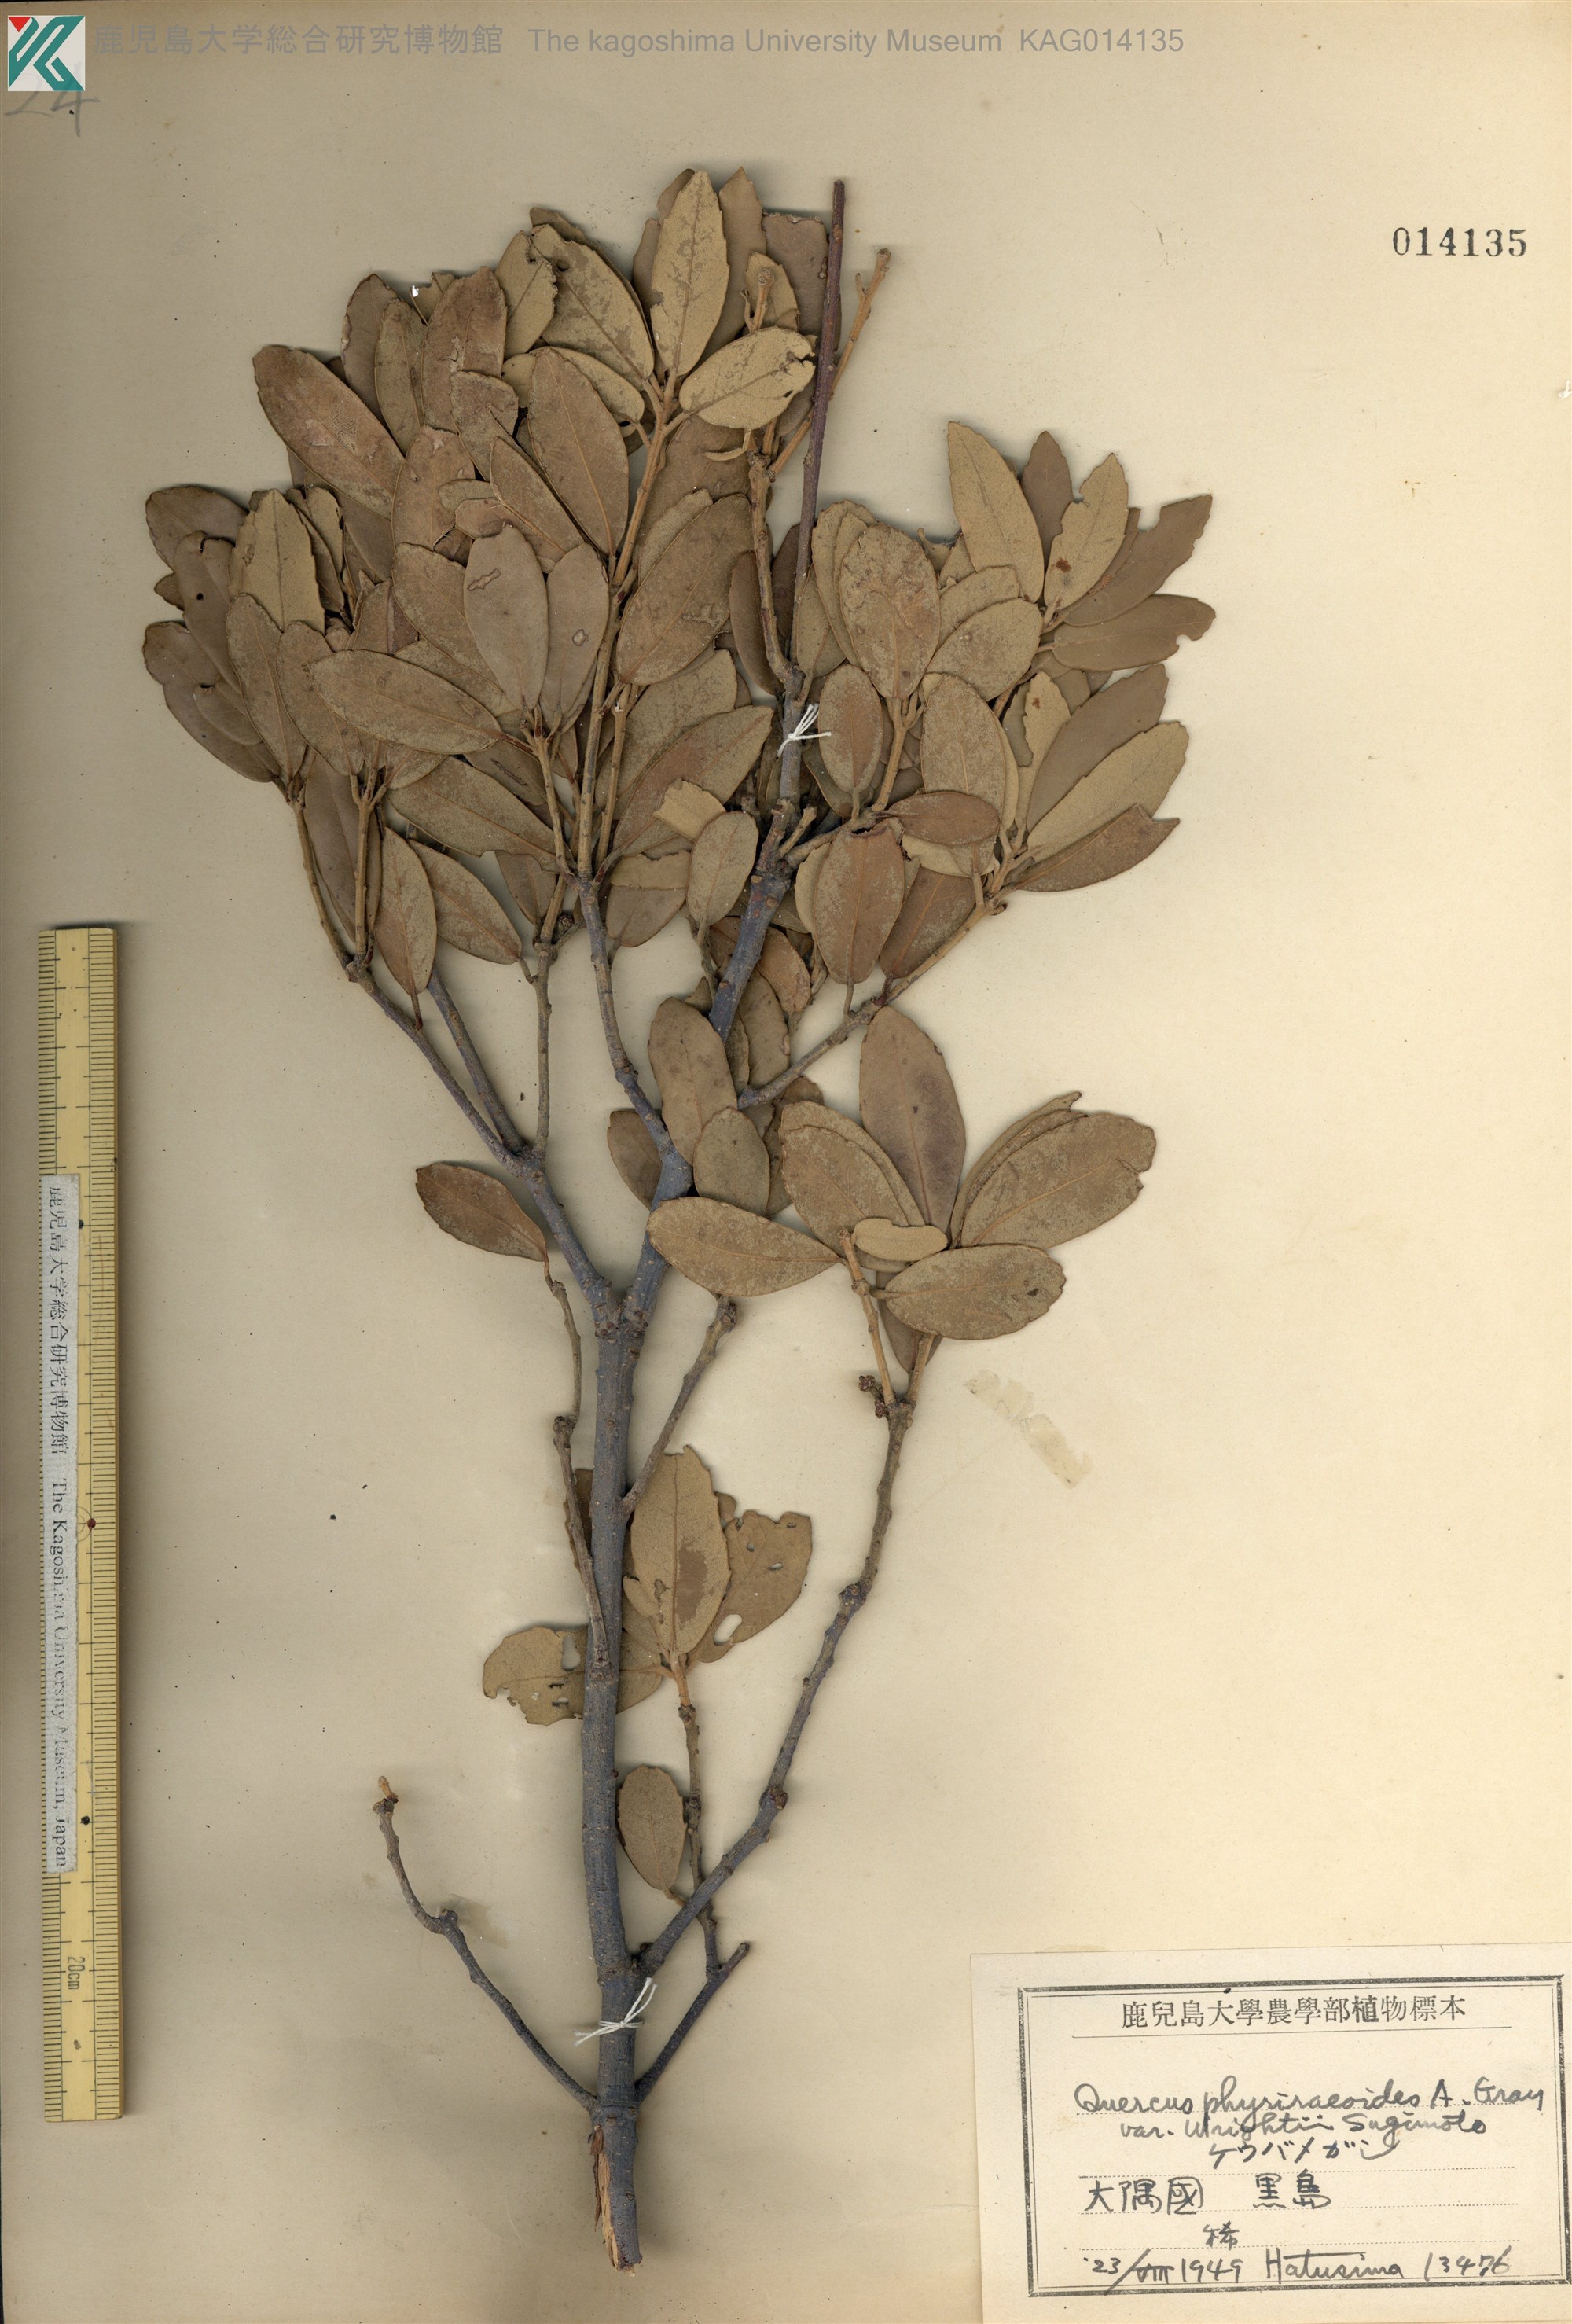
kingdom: Plantae
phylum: Tracheophyta
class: Magnoliopsida
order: Fagales
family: Fagaceae
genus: Quercus
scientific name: Quercus phillyreoides
